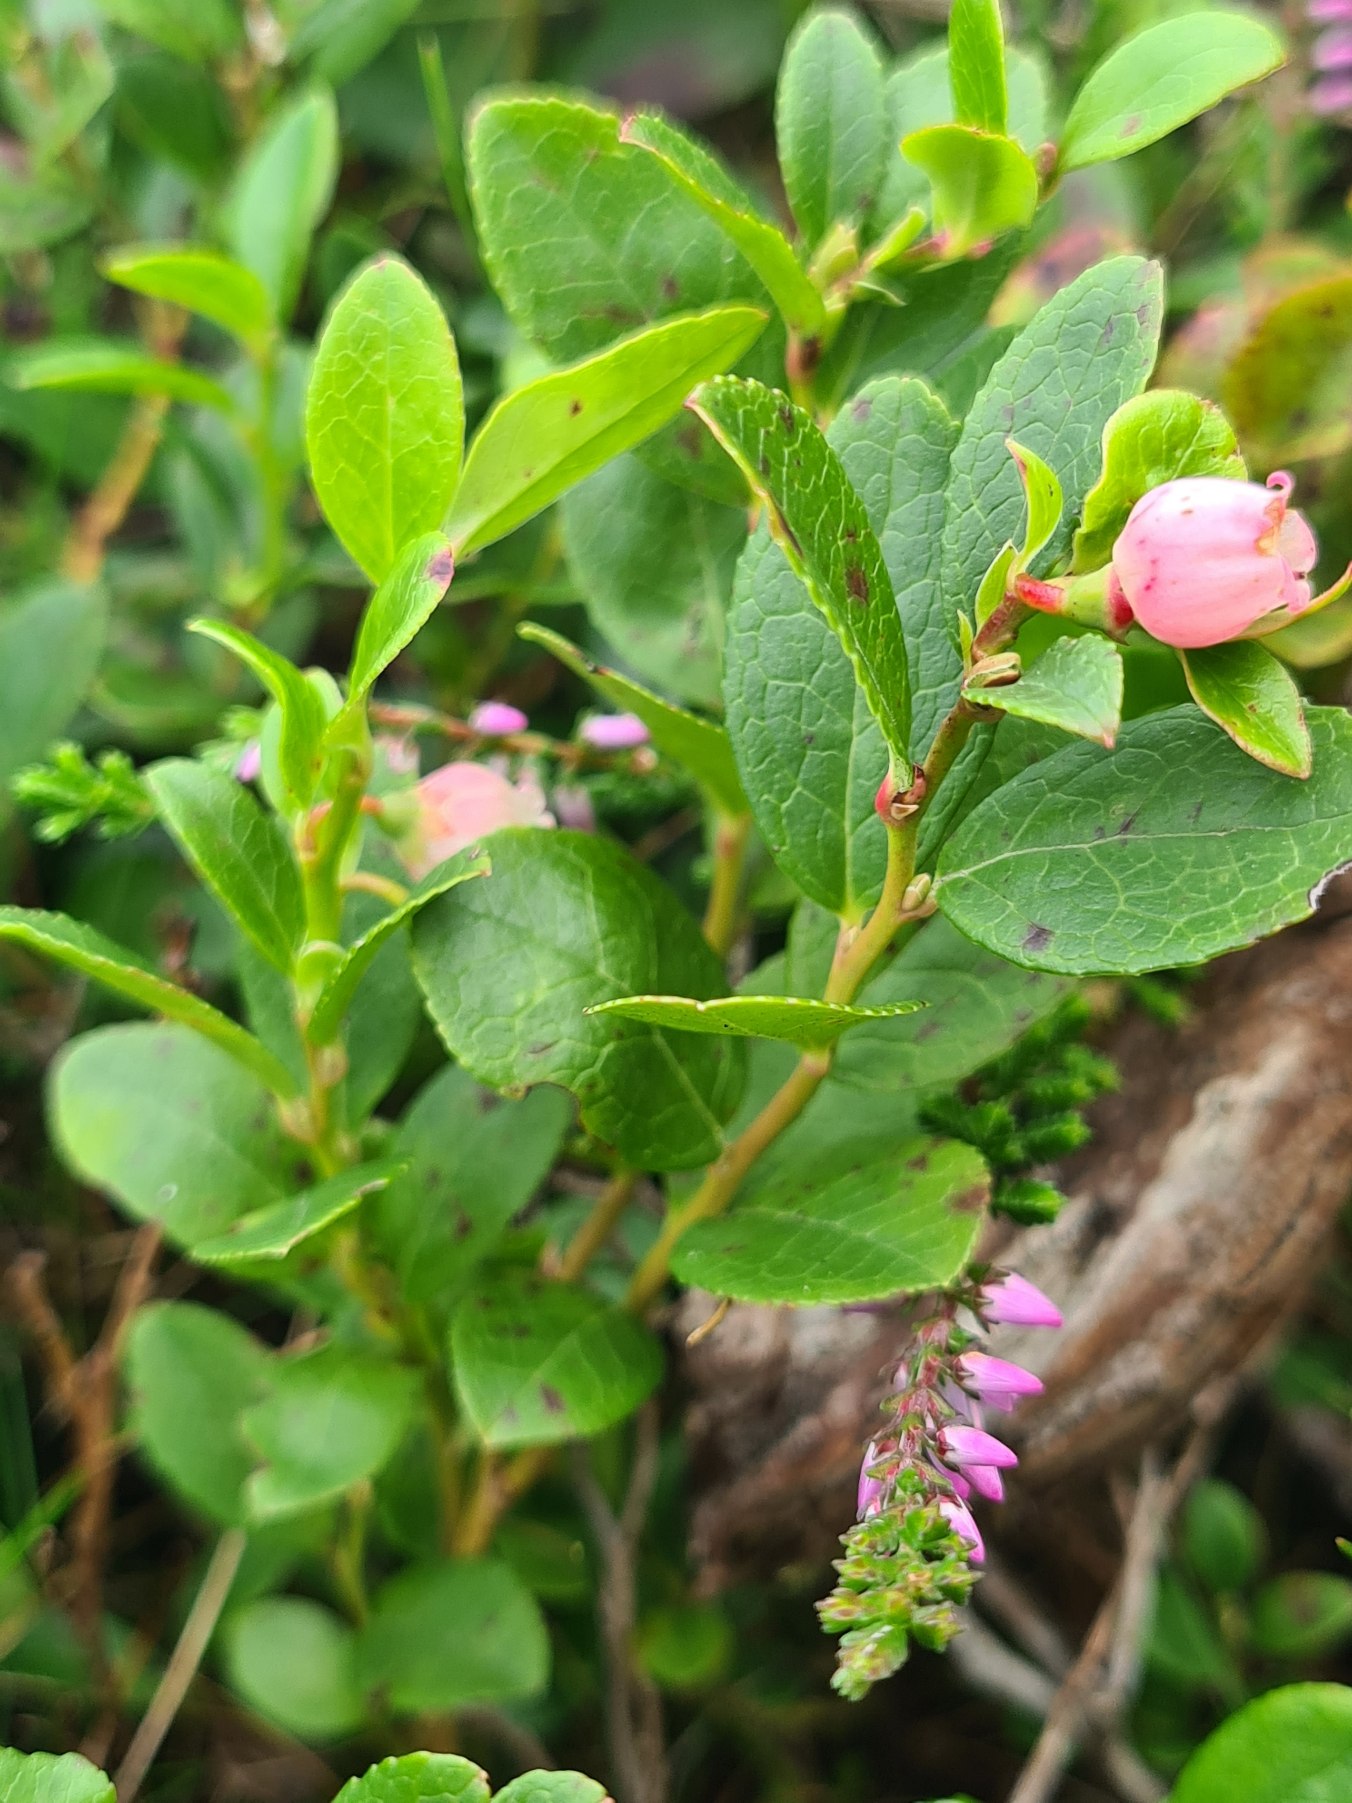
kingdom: Plantae
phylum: Tracheophyta
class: Magnoliopsida
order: Ericales
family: Ericaceae
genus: Vaccinium
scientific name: Vaccinium uliginosum
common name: Mose-bølle
